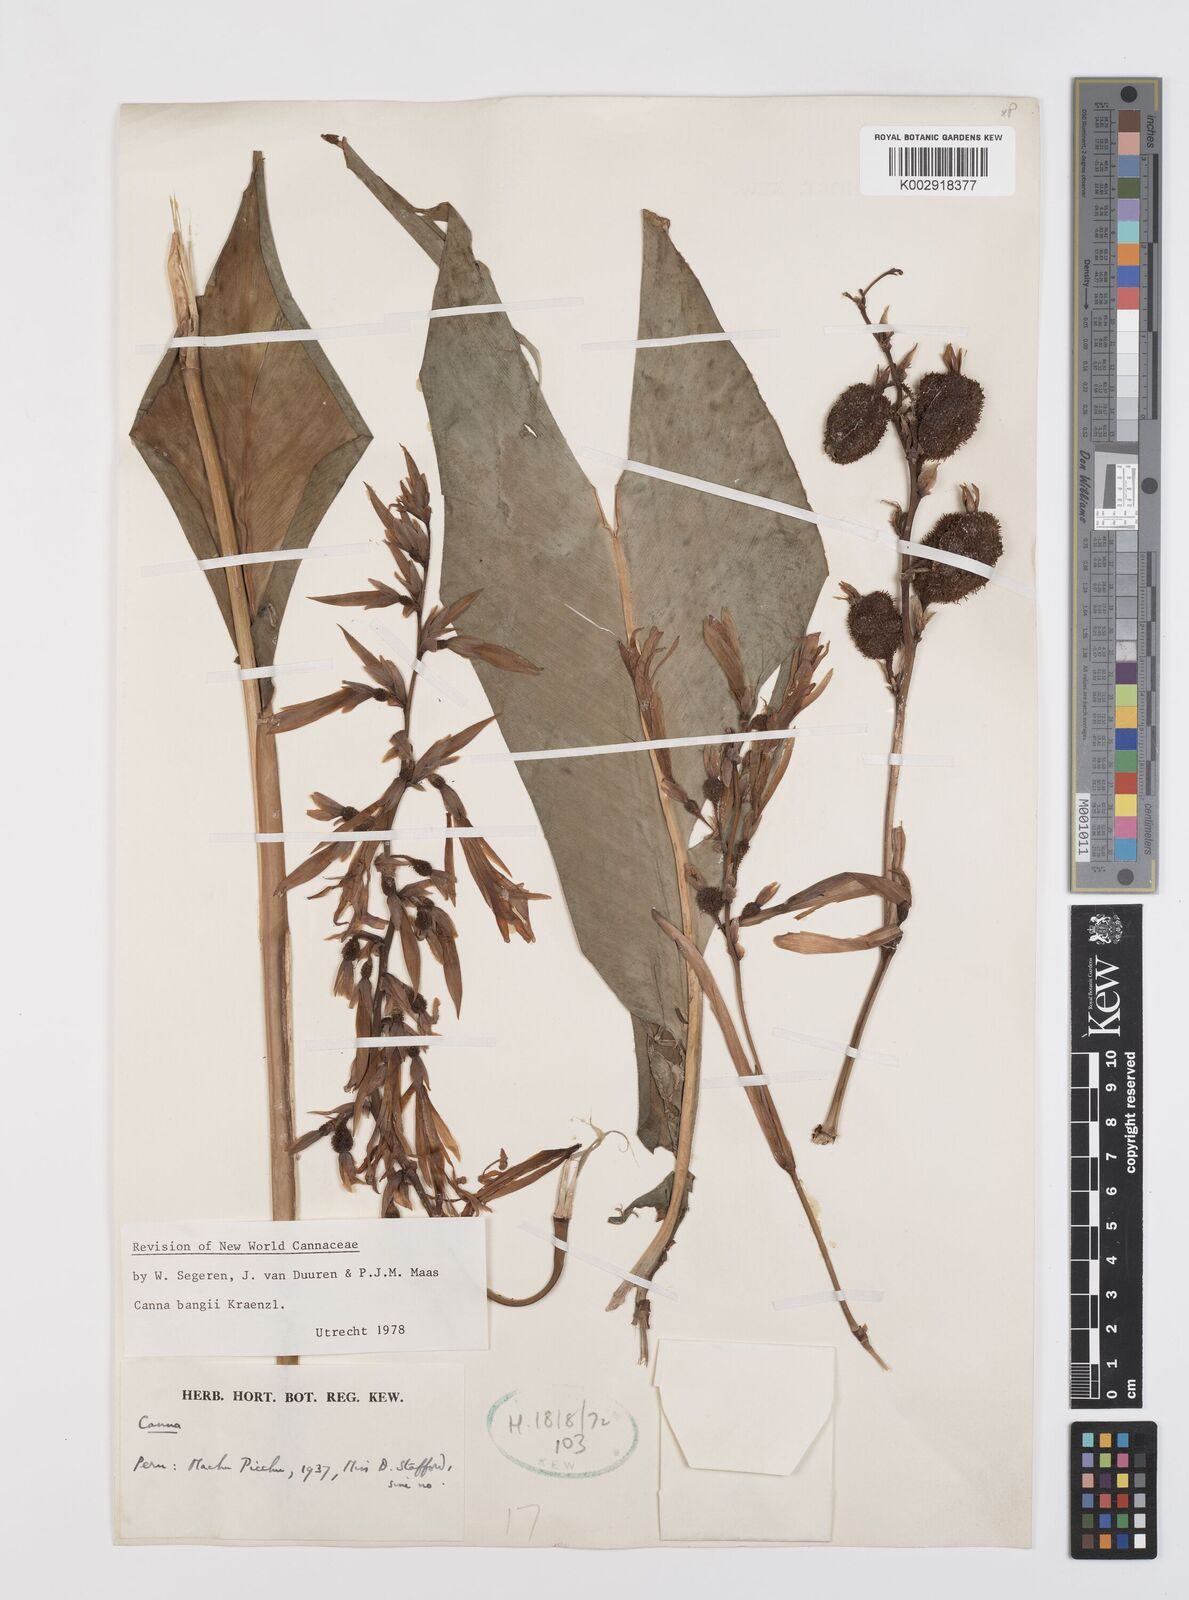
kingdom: Plantae
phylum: Tracheophyta
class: Liliopsida
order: Zingiberales
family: Cannaceae
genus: Canna
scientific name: Canna bangii
